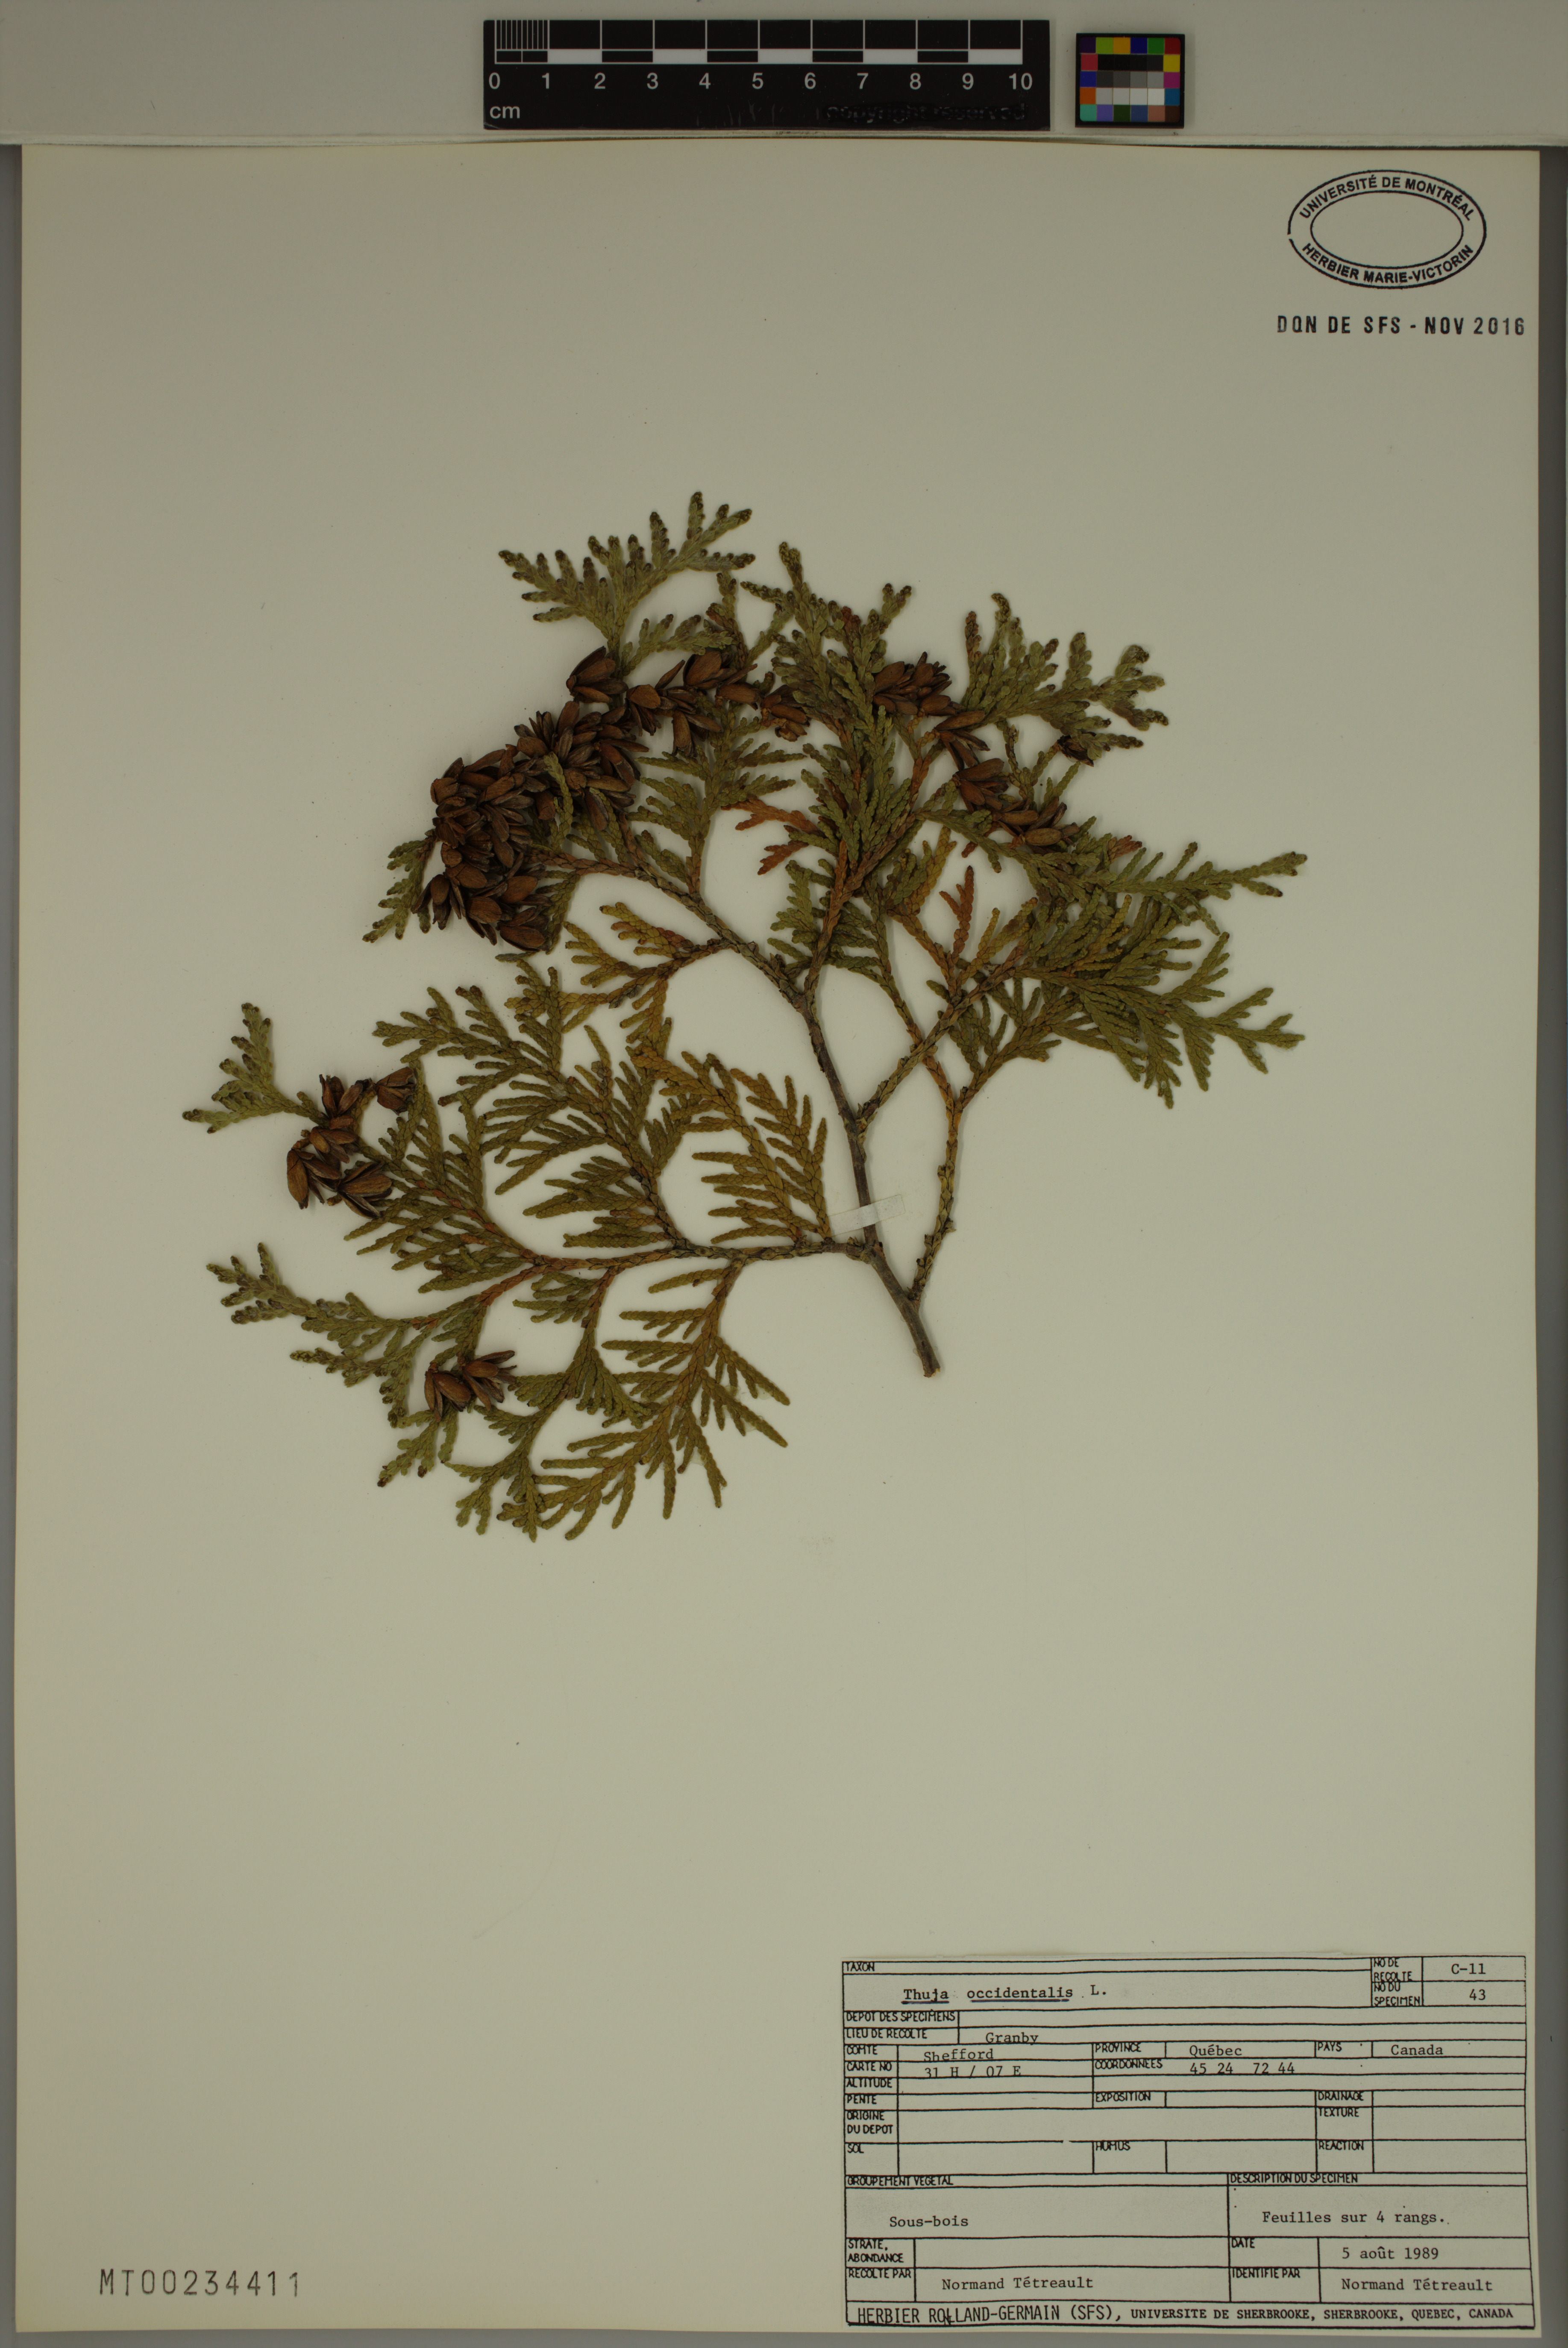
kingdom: Plantae
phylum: Tracheophyta
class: Pinopsida
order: Pinales
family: Cupressaceae
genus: Thuja
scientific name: Thuja occidentalis
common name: Northern white-cedar
